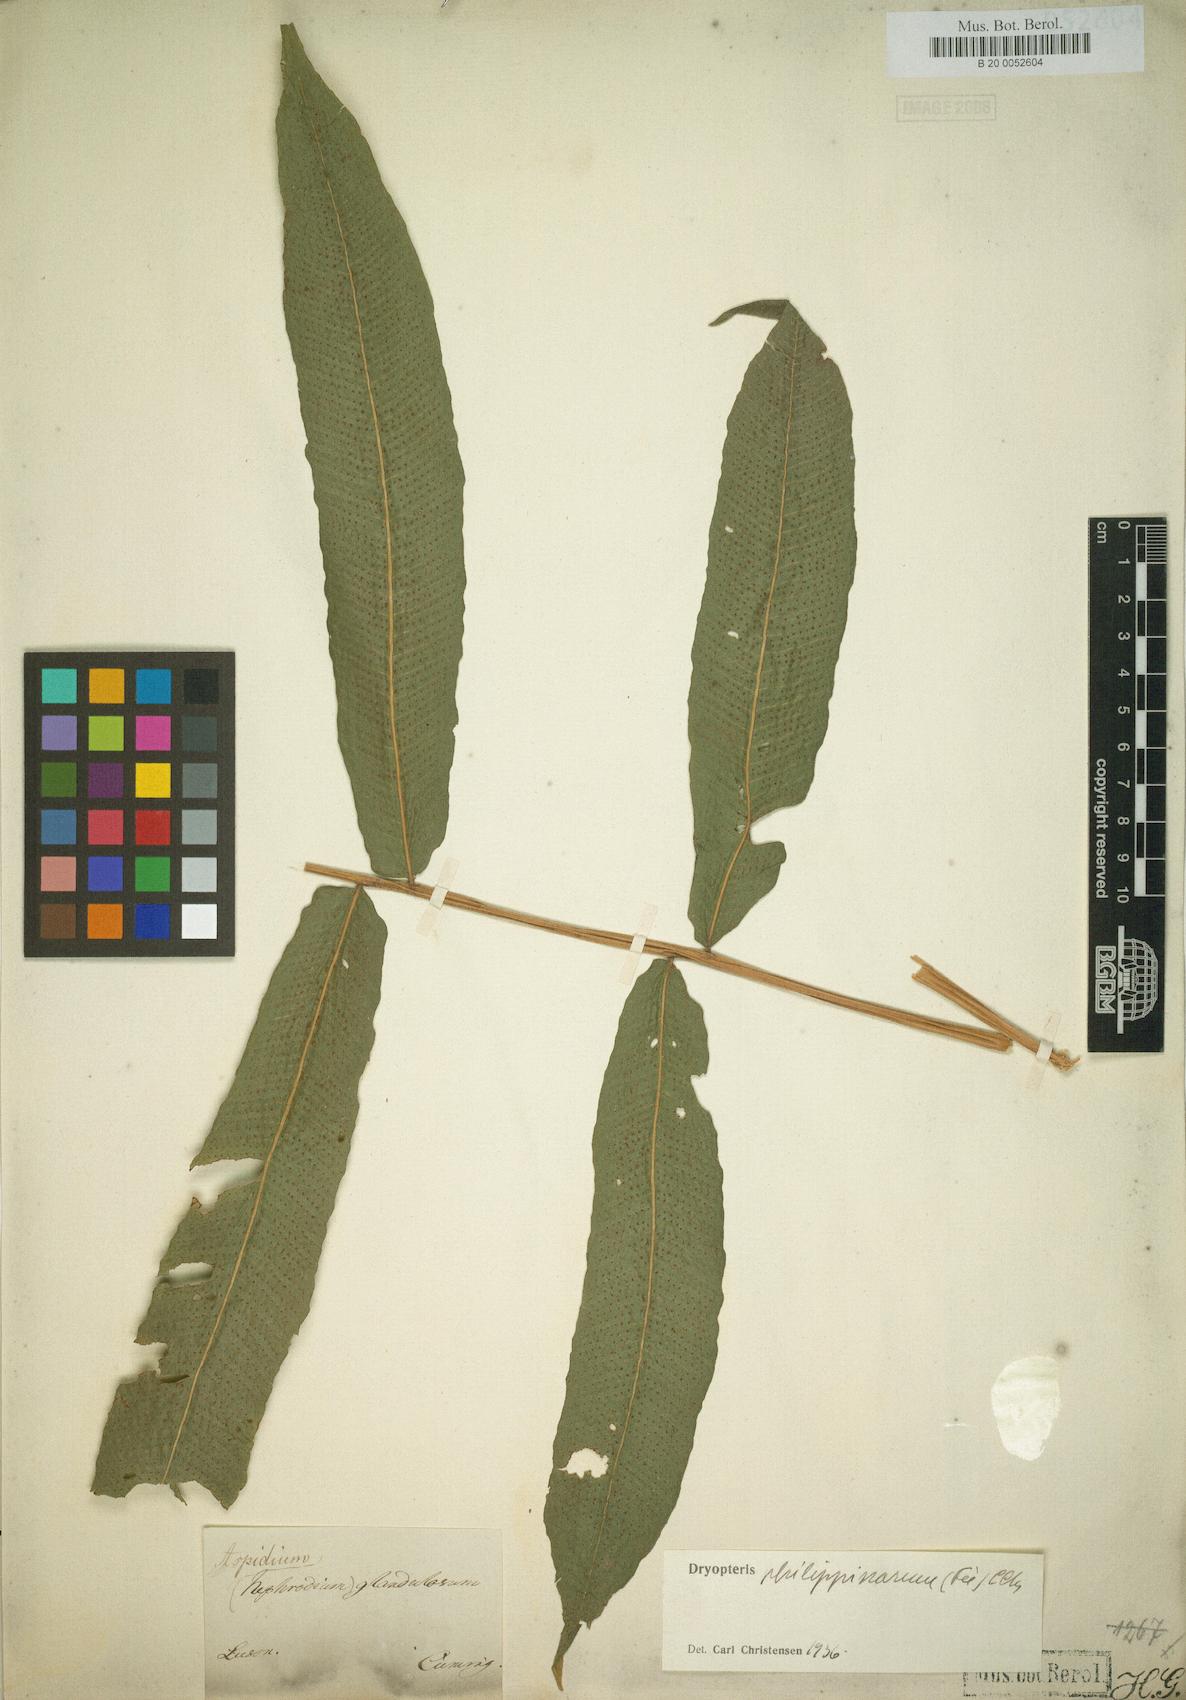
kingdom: Plantae
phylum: Tracheophyta
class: Polypodiopsida
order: Polypodiales
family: Dryopteridaceae
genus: Dryopteris
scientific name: Dryopteris
